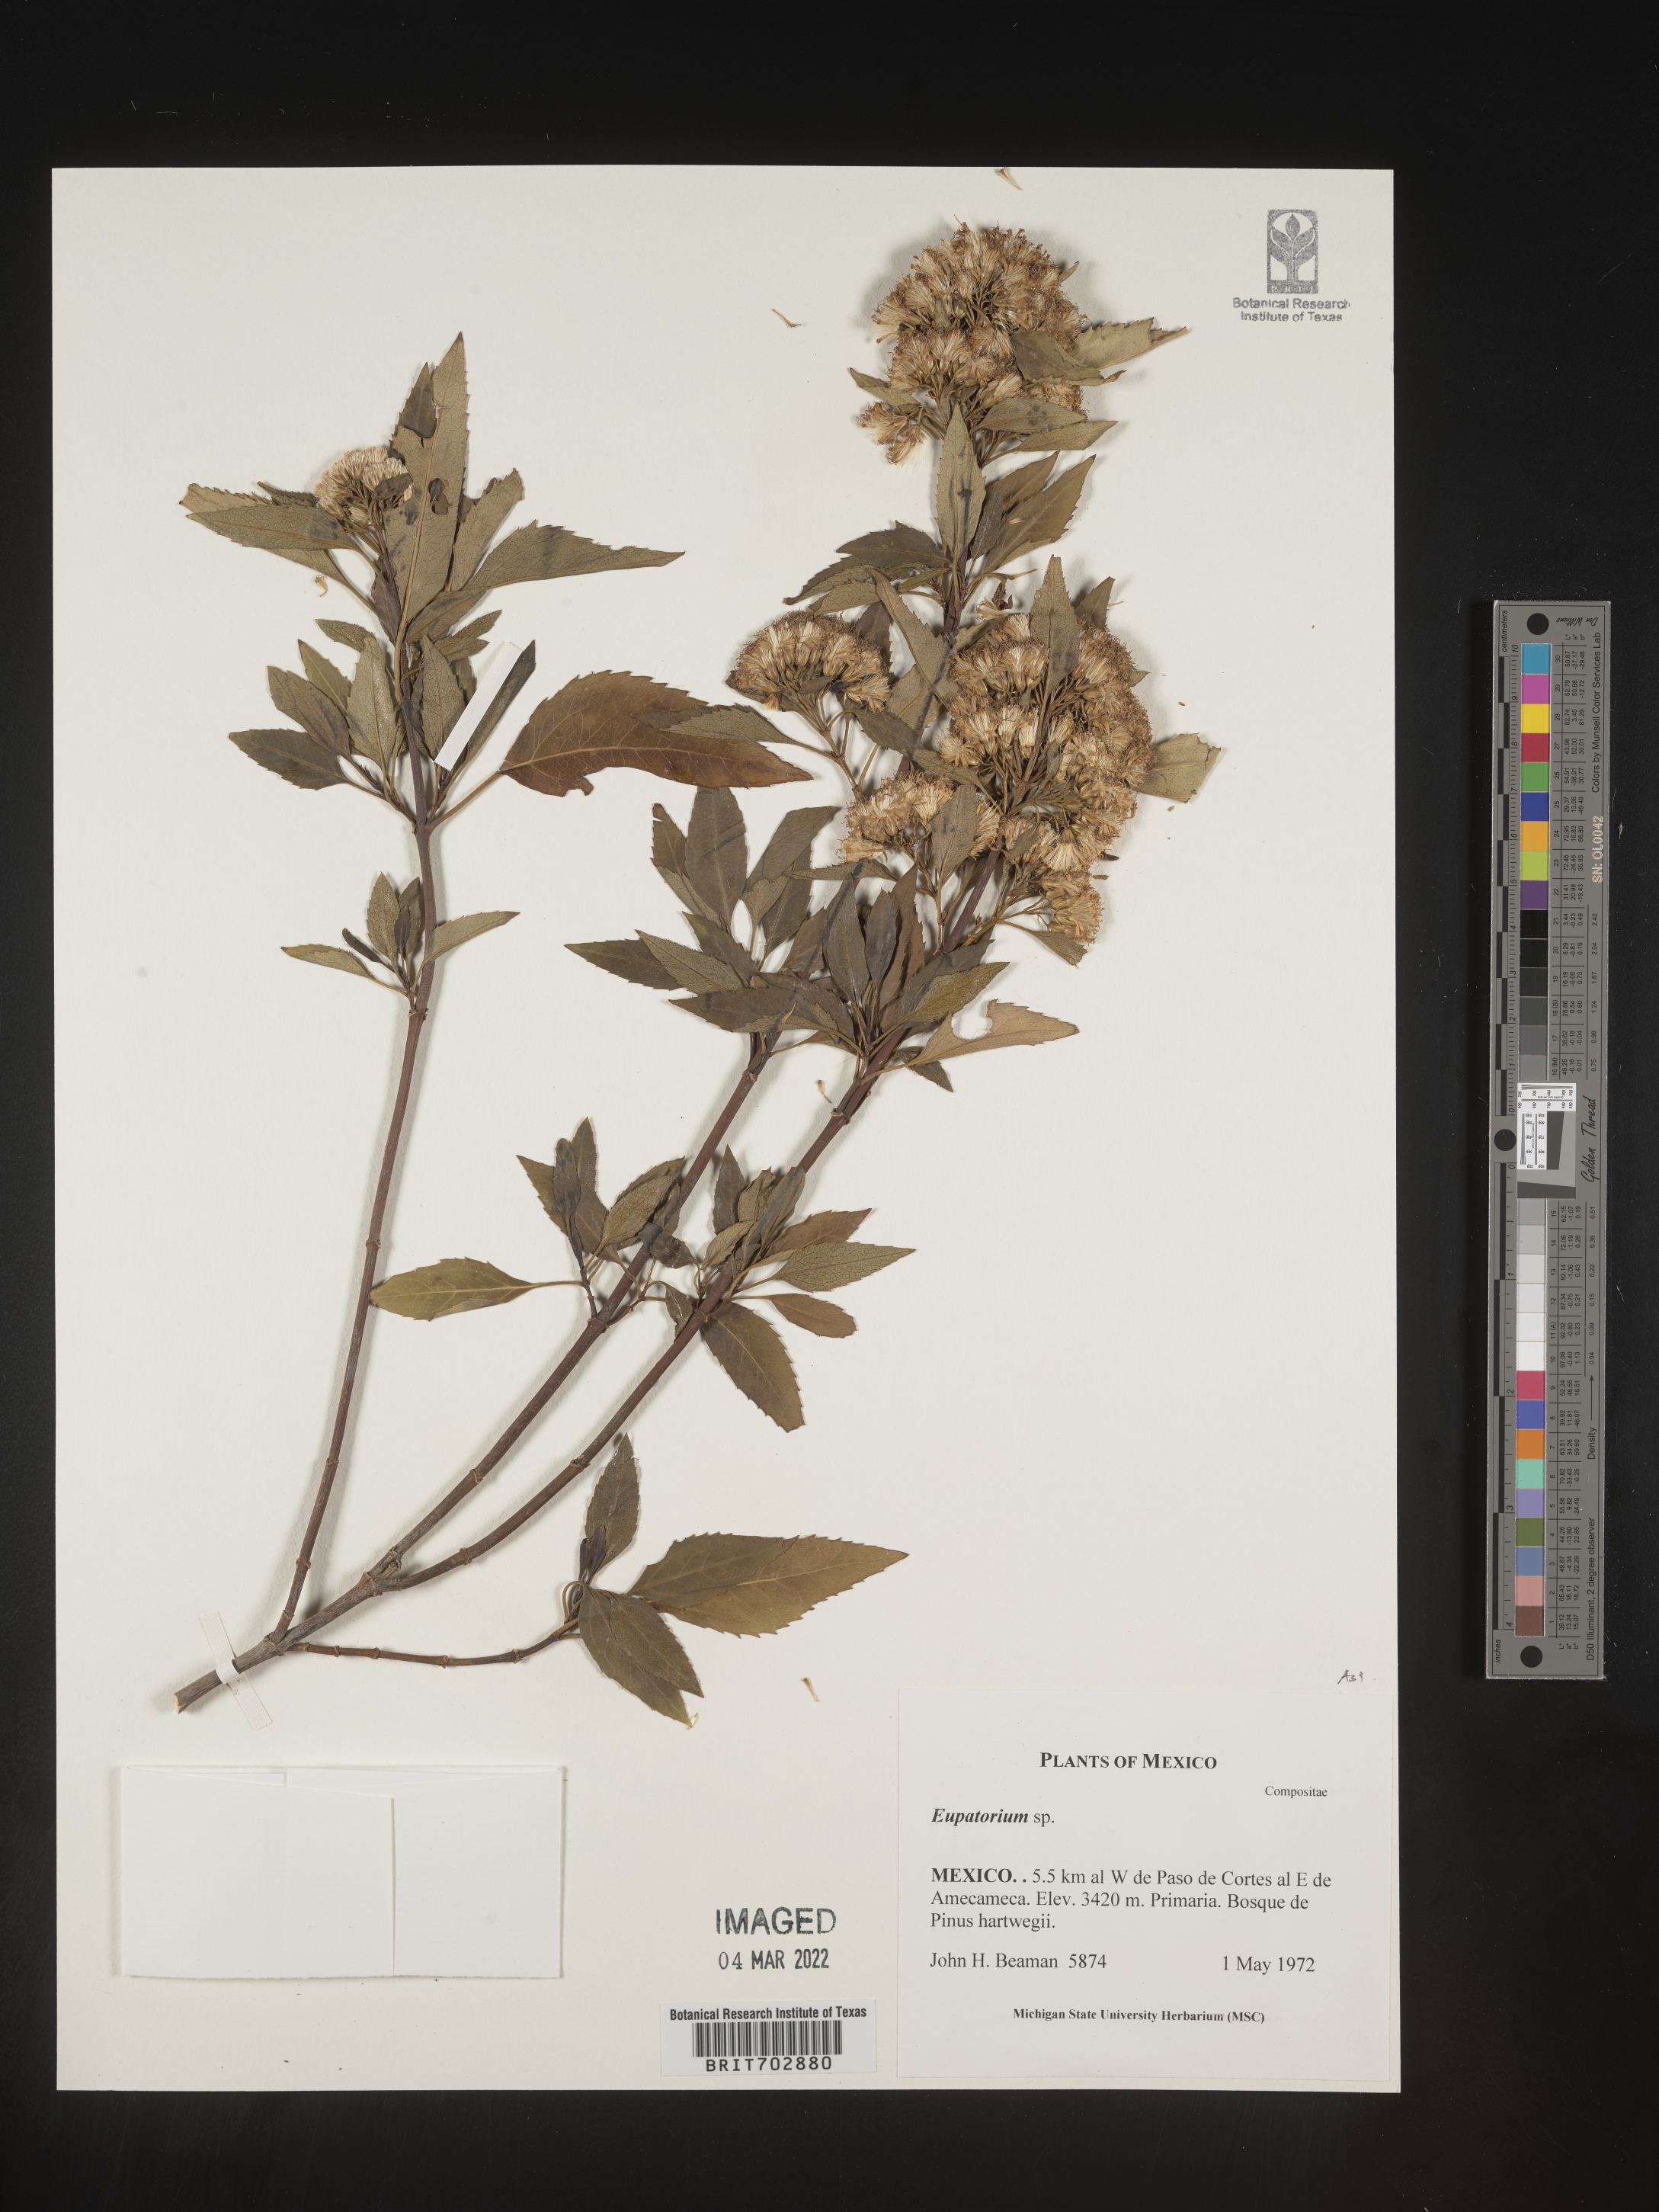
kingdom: Plantae
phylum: Tracheophyta
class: Magnoliopsida
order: Asterales
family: Asteraceae
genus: Eupatorium
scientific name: Eupatorium
